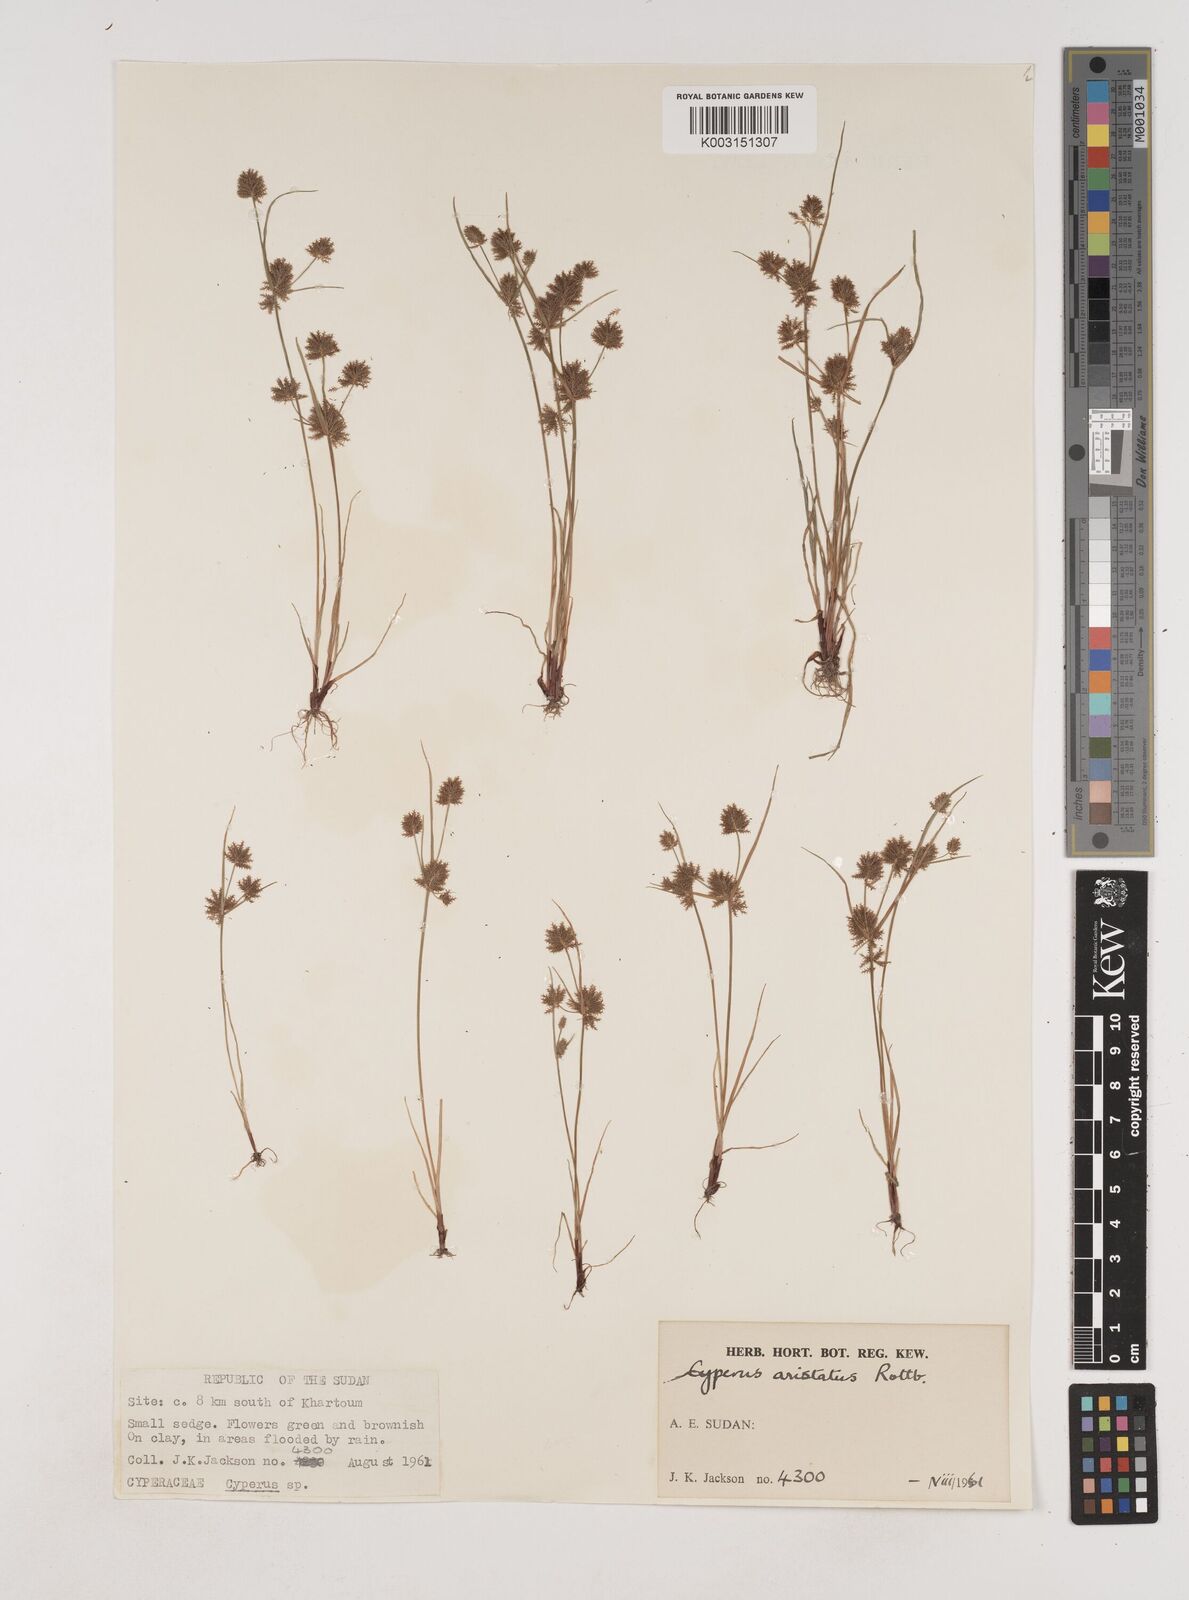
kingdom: Plantae
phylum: Tracheophyta
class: Liliopsida
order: Poales
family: Cyperaceae
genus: Cyperus
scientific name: Cyperus squarrosus
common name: Awned cyperus
